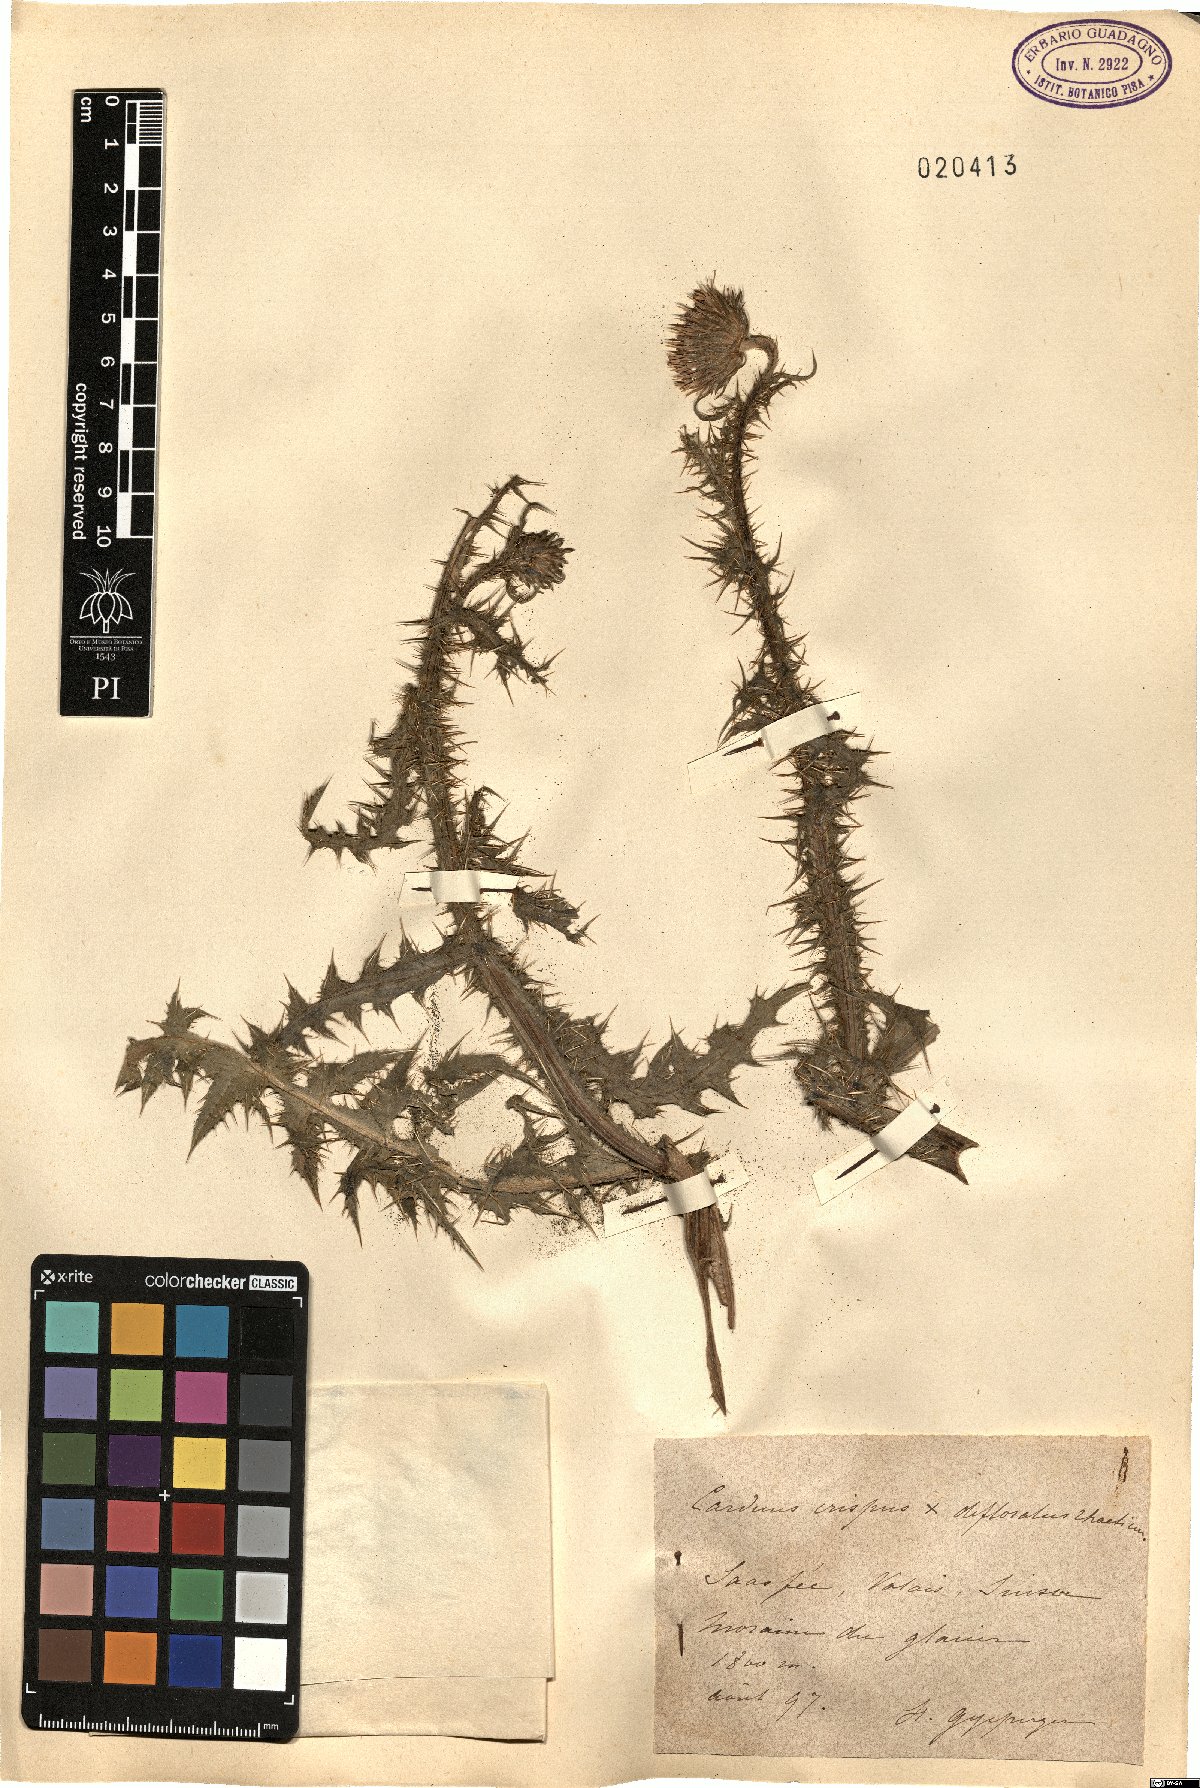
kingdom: Plantae
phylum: Tracheophyta
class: Magnoliopsida
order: Asterales
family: Asteraceae
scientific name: Asteraceae
